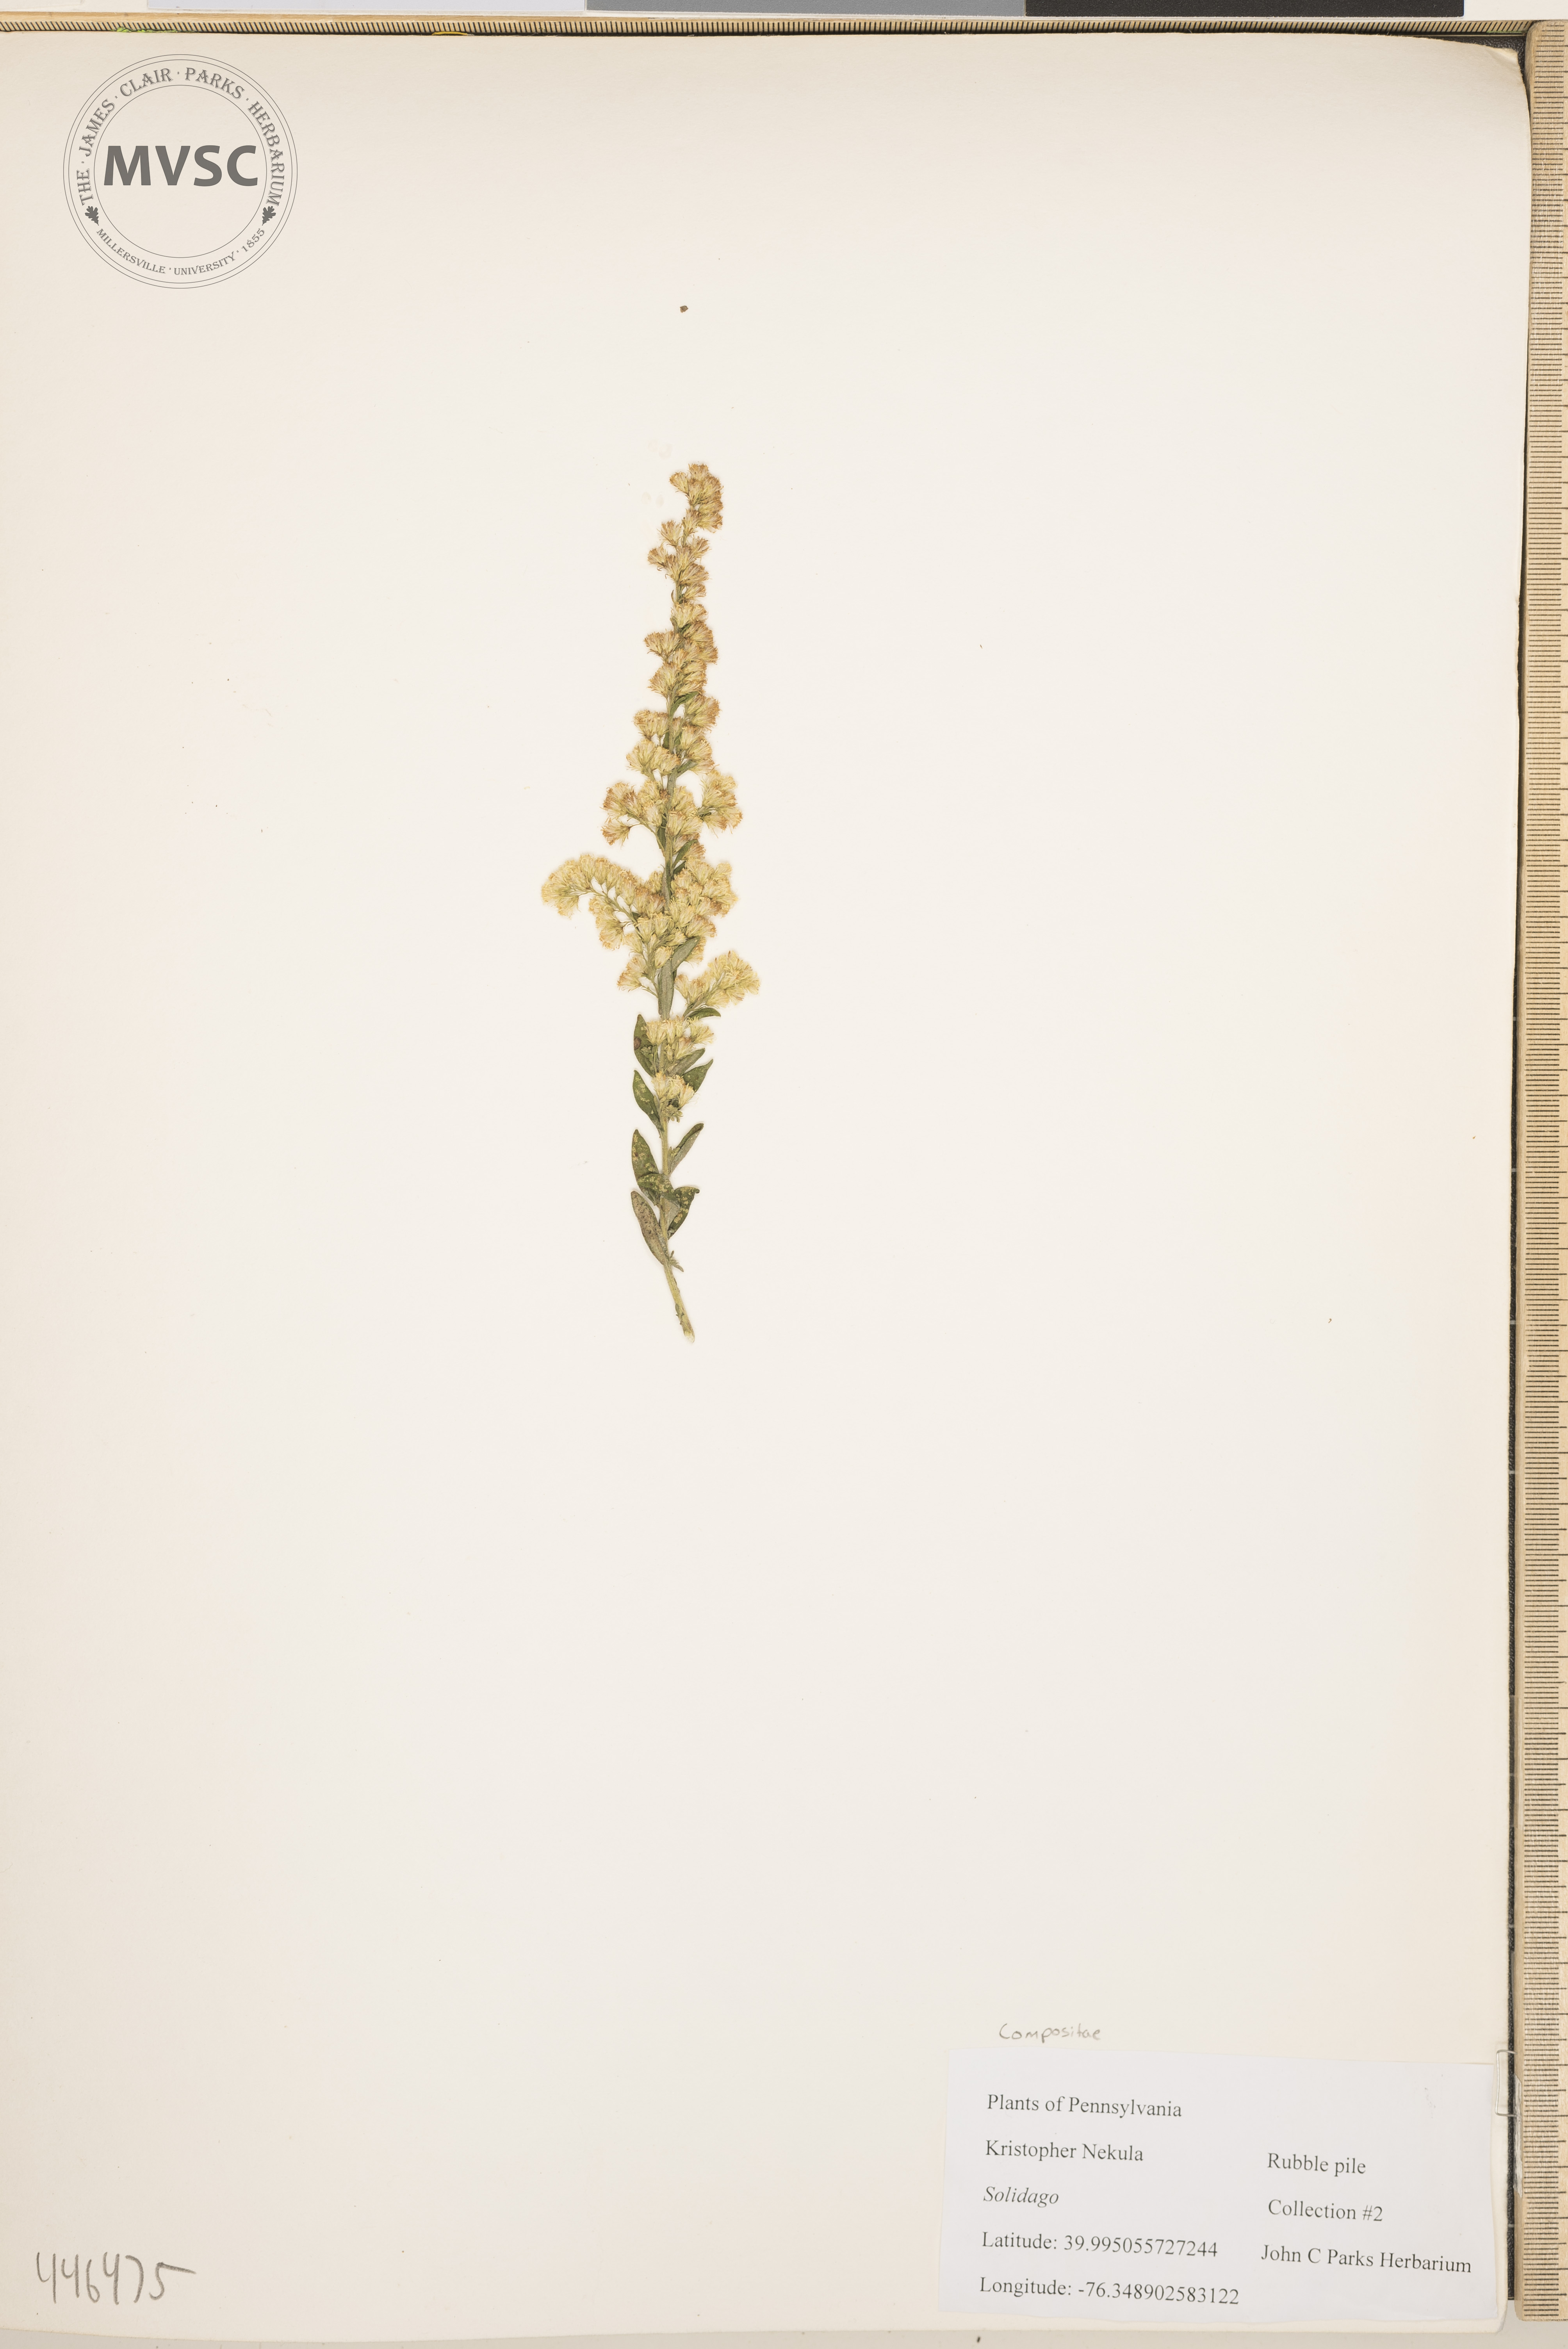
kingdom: Plantae
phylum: Tracheophyta
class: Magnoliopsida
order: Asterales
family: Asteraceae
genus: Solidago
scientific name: Solidago
